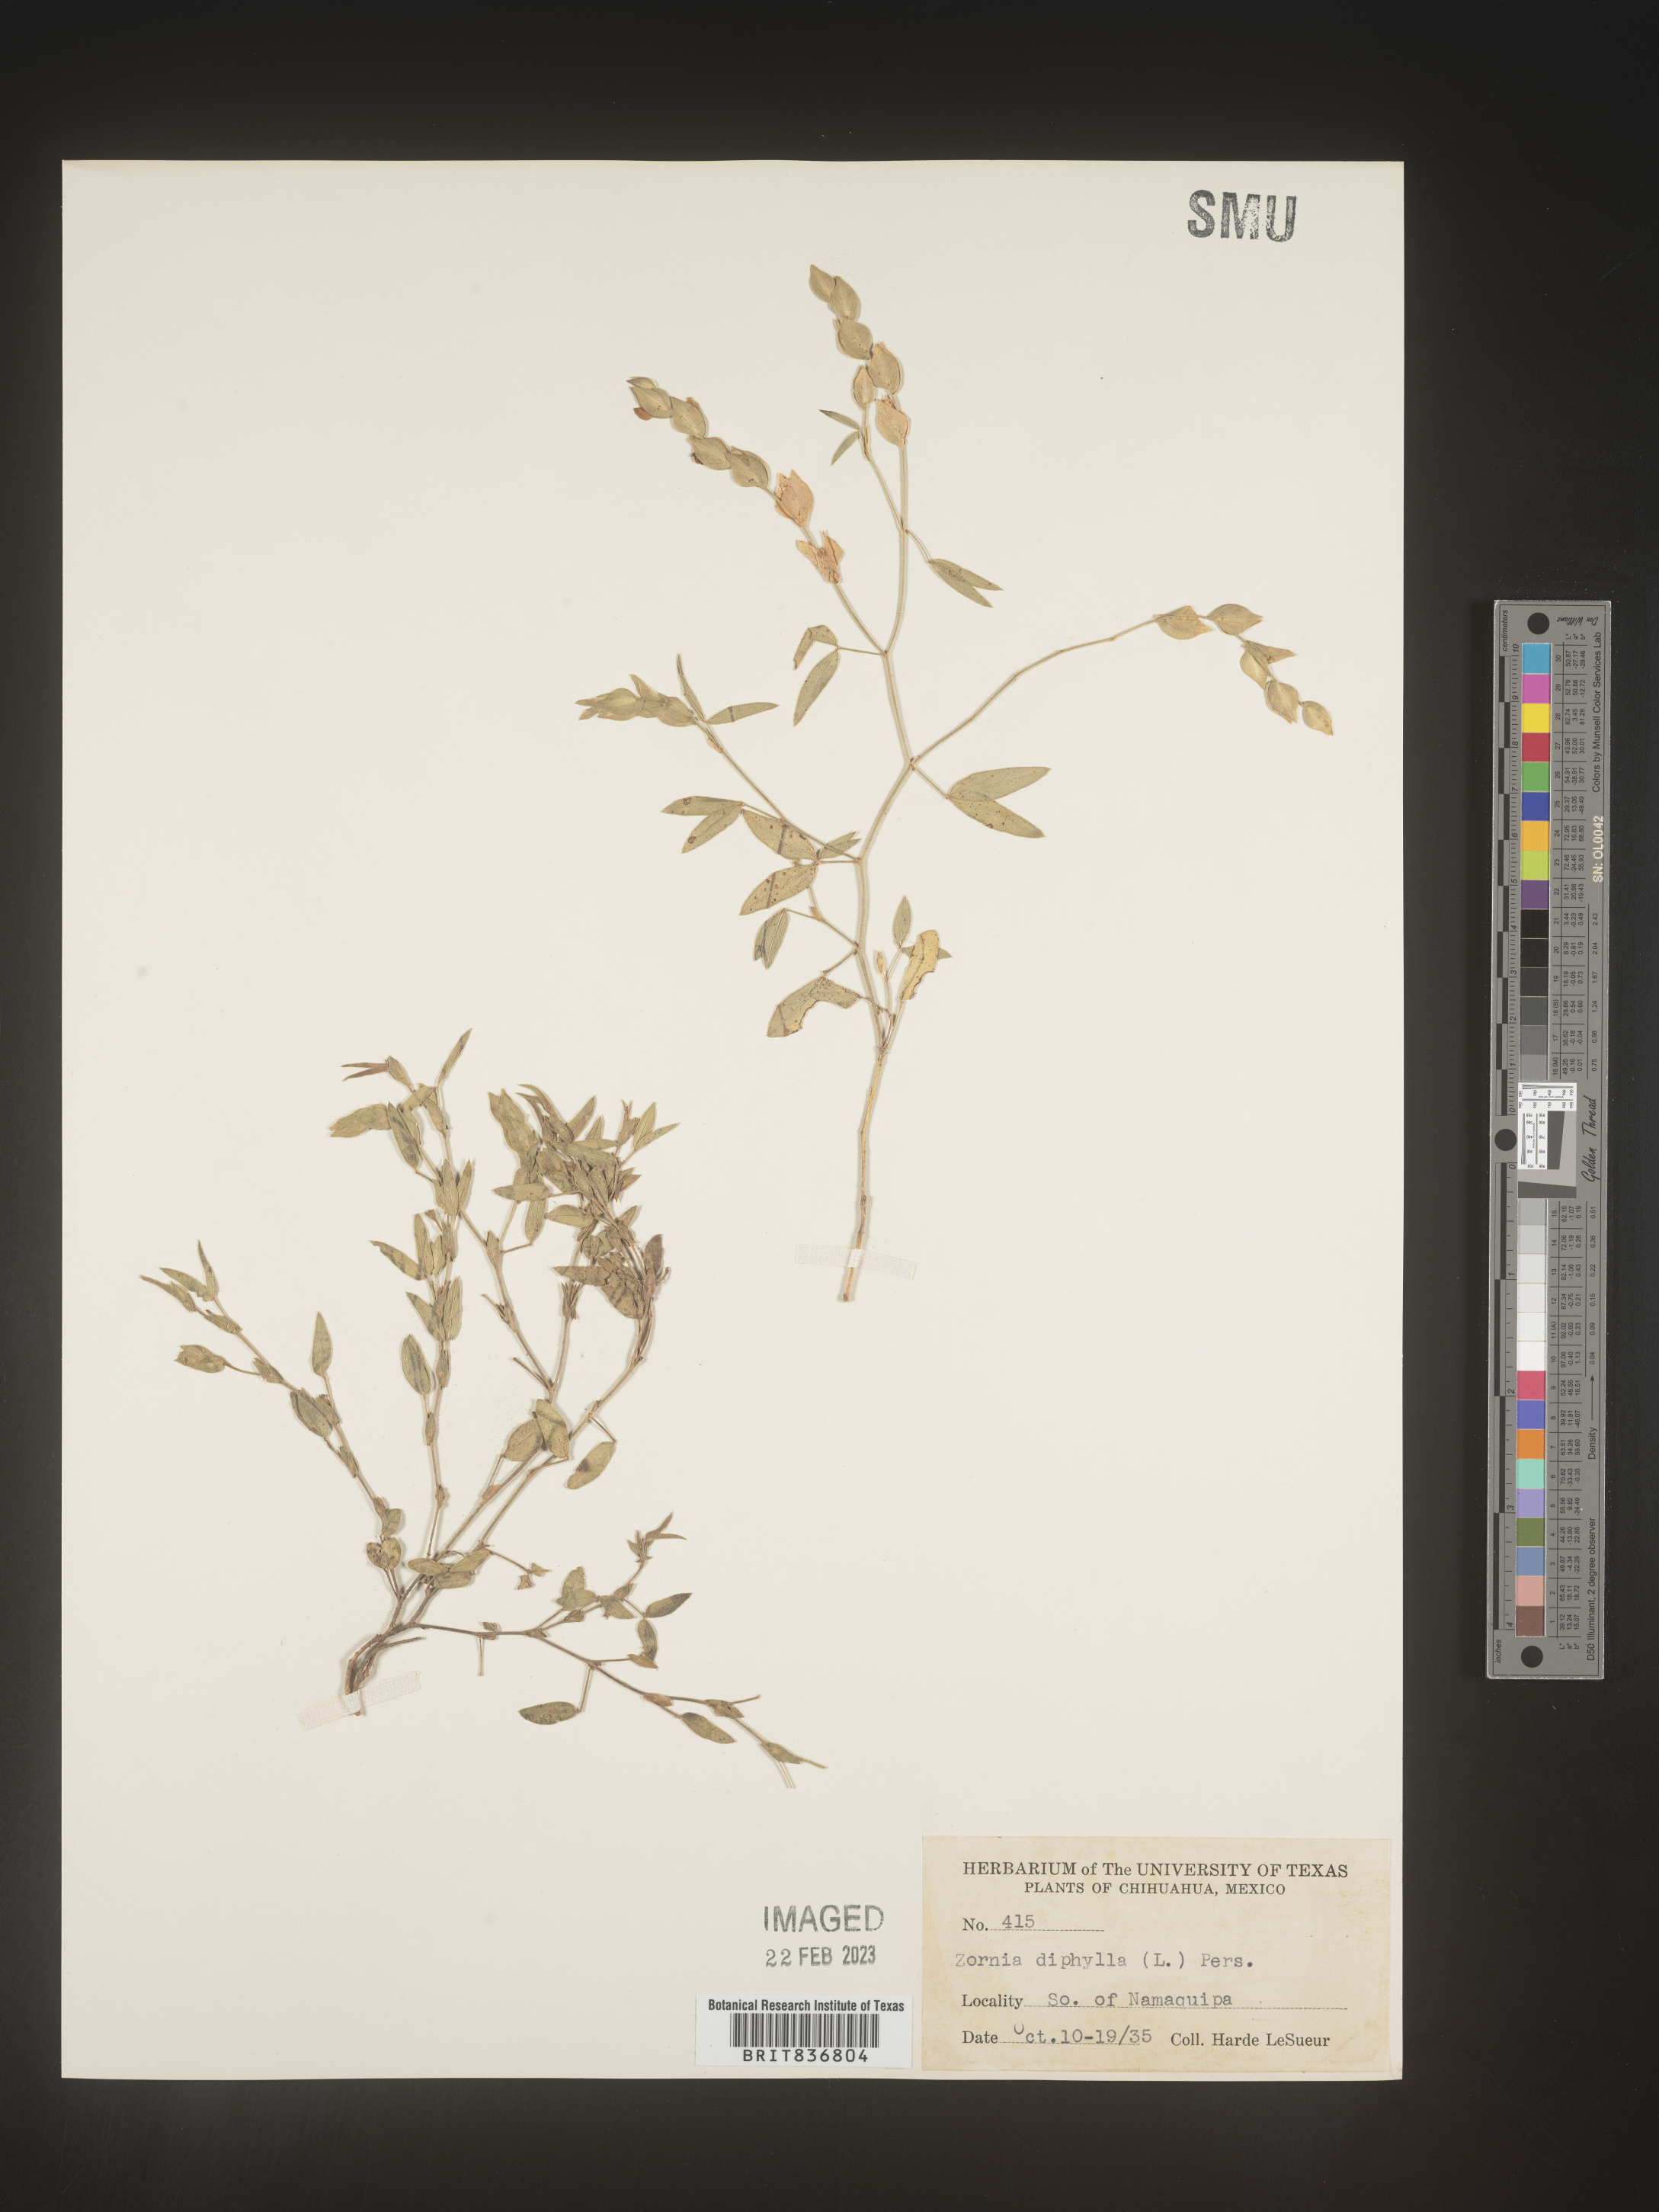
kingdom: Plantae
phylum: Tracheophyta
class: Magnoliopsida
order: Fabales
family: Fabaceae
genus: Zornia
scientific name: Zornia
